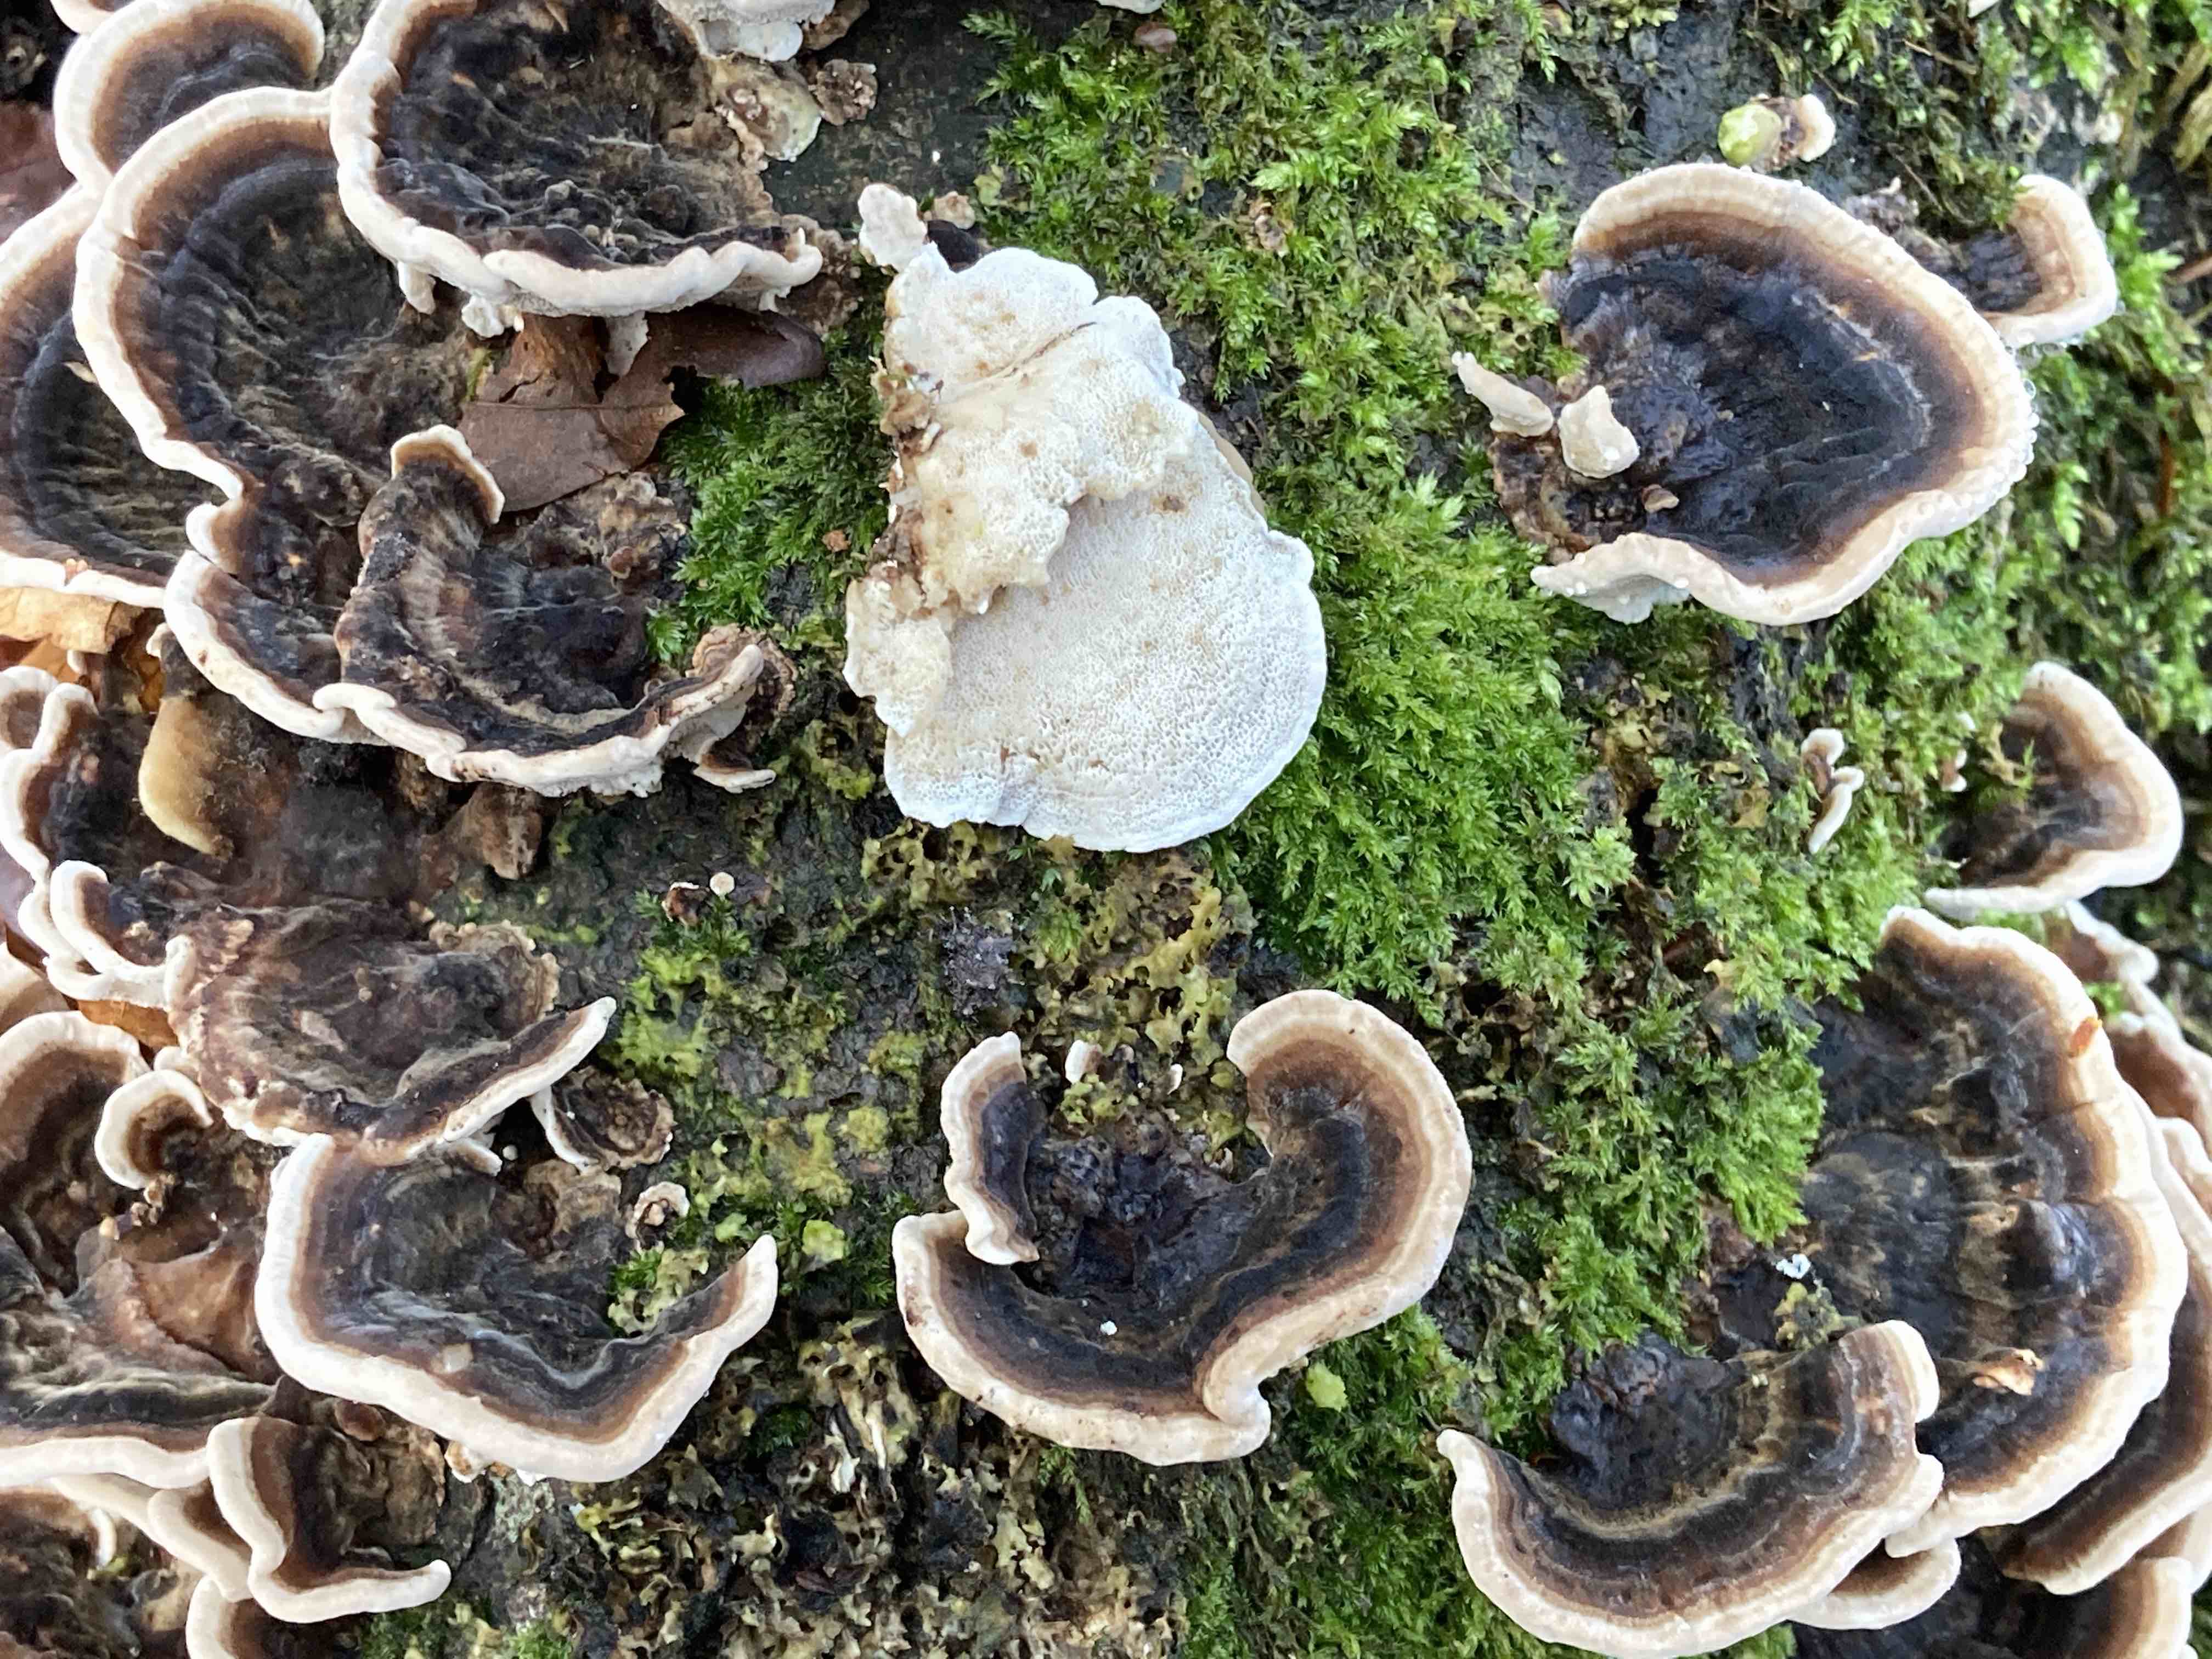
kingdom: Fungi
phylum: Basidiomycota
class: Agaricomycetes
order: Polyporales
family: Polyporaceae
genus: Trametes
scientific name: Trametes versicolor
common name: broget læderporesvamp
